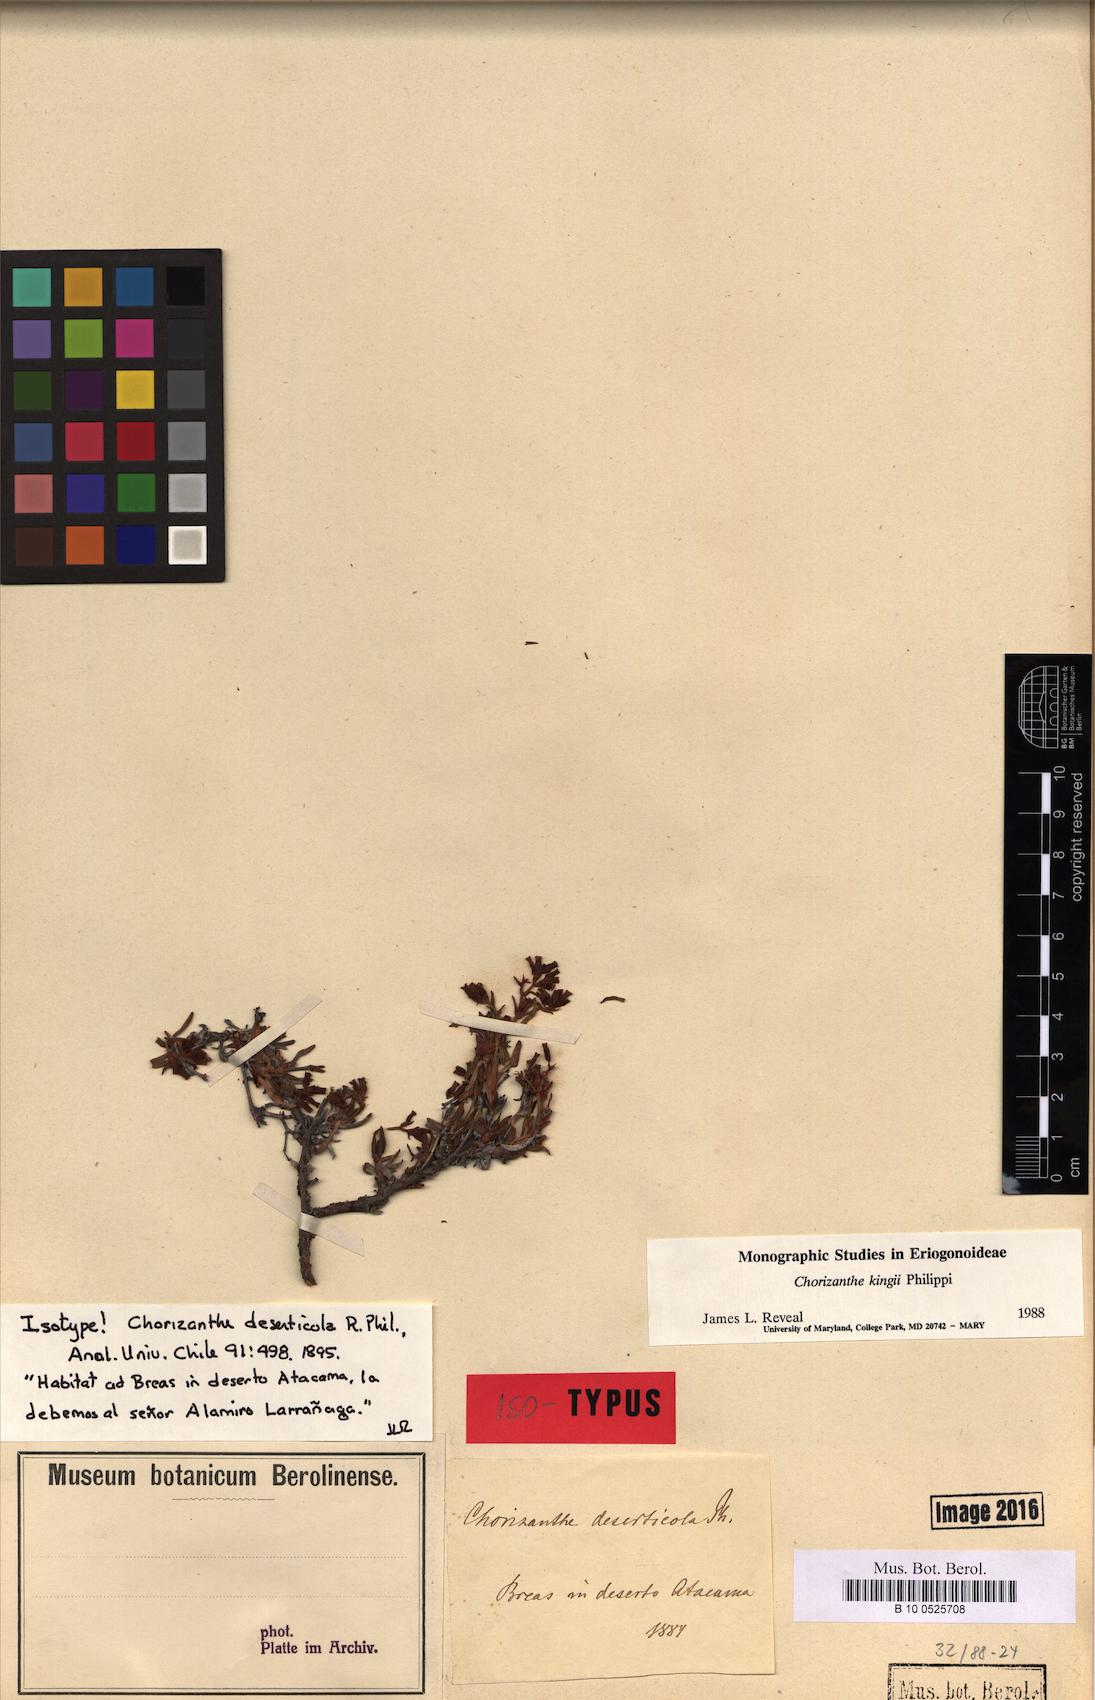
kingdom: Plantae
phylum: Tracheophyta
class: Magnoliopsida
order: Caryophyllales
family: Polygonaceae
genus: Chorizanthe
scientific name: Chorizanthe kingii
